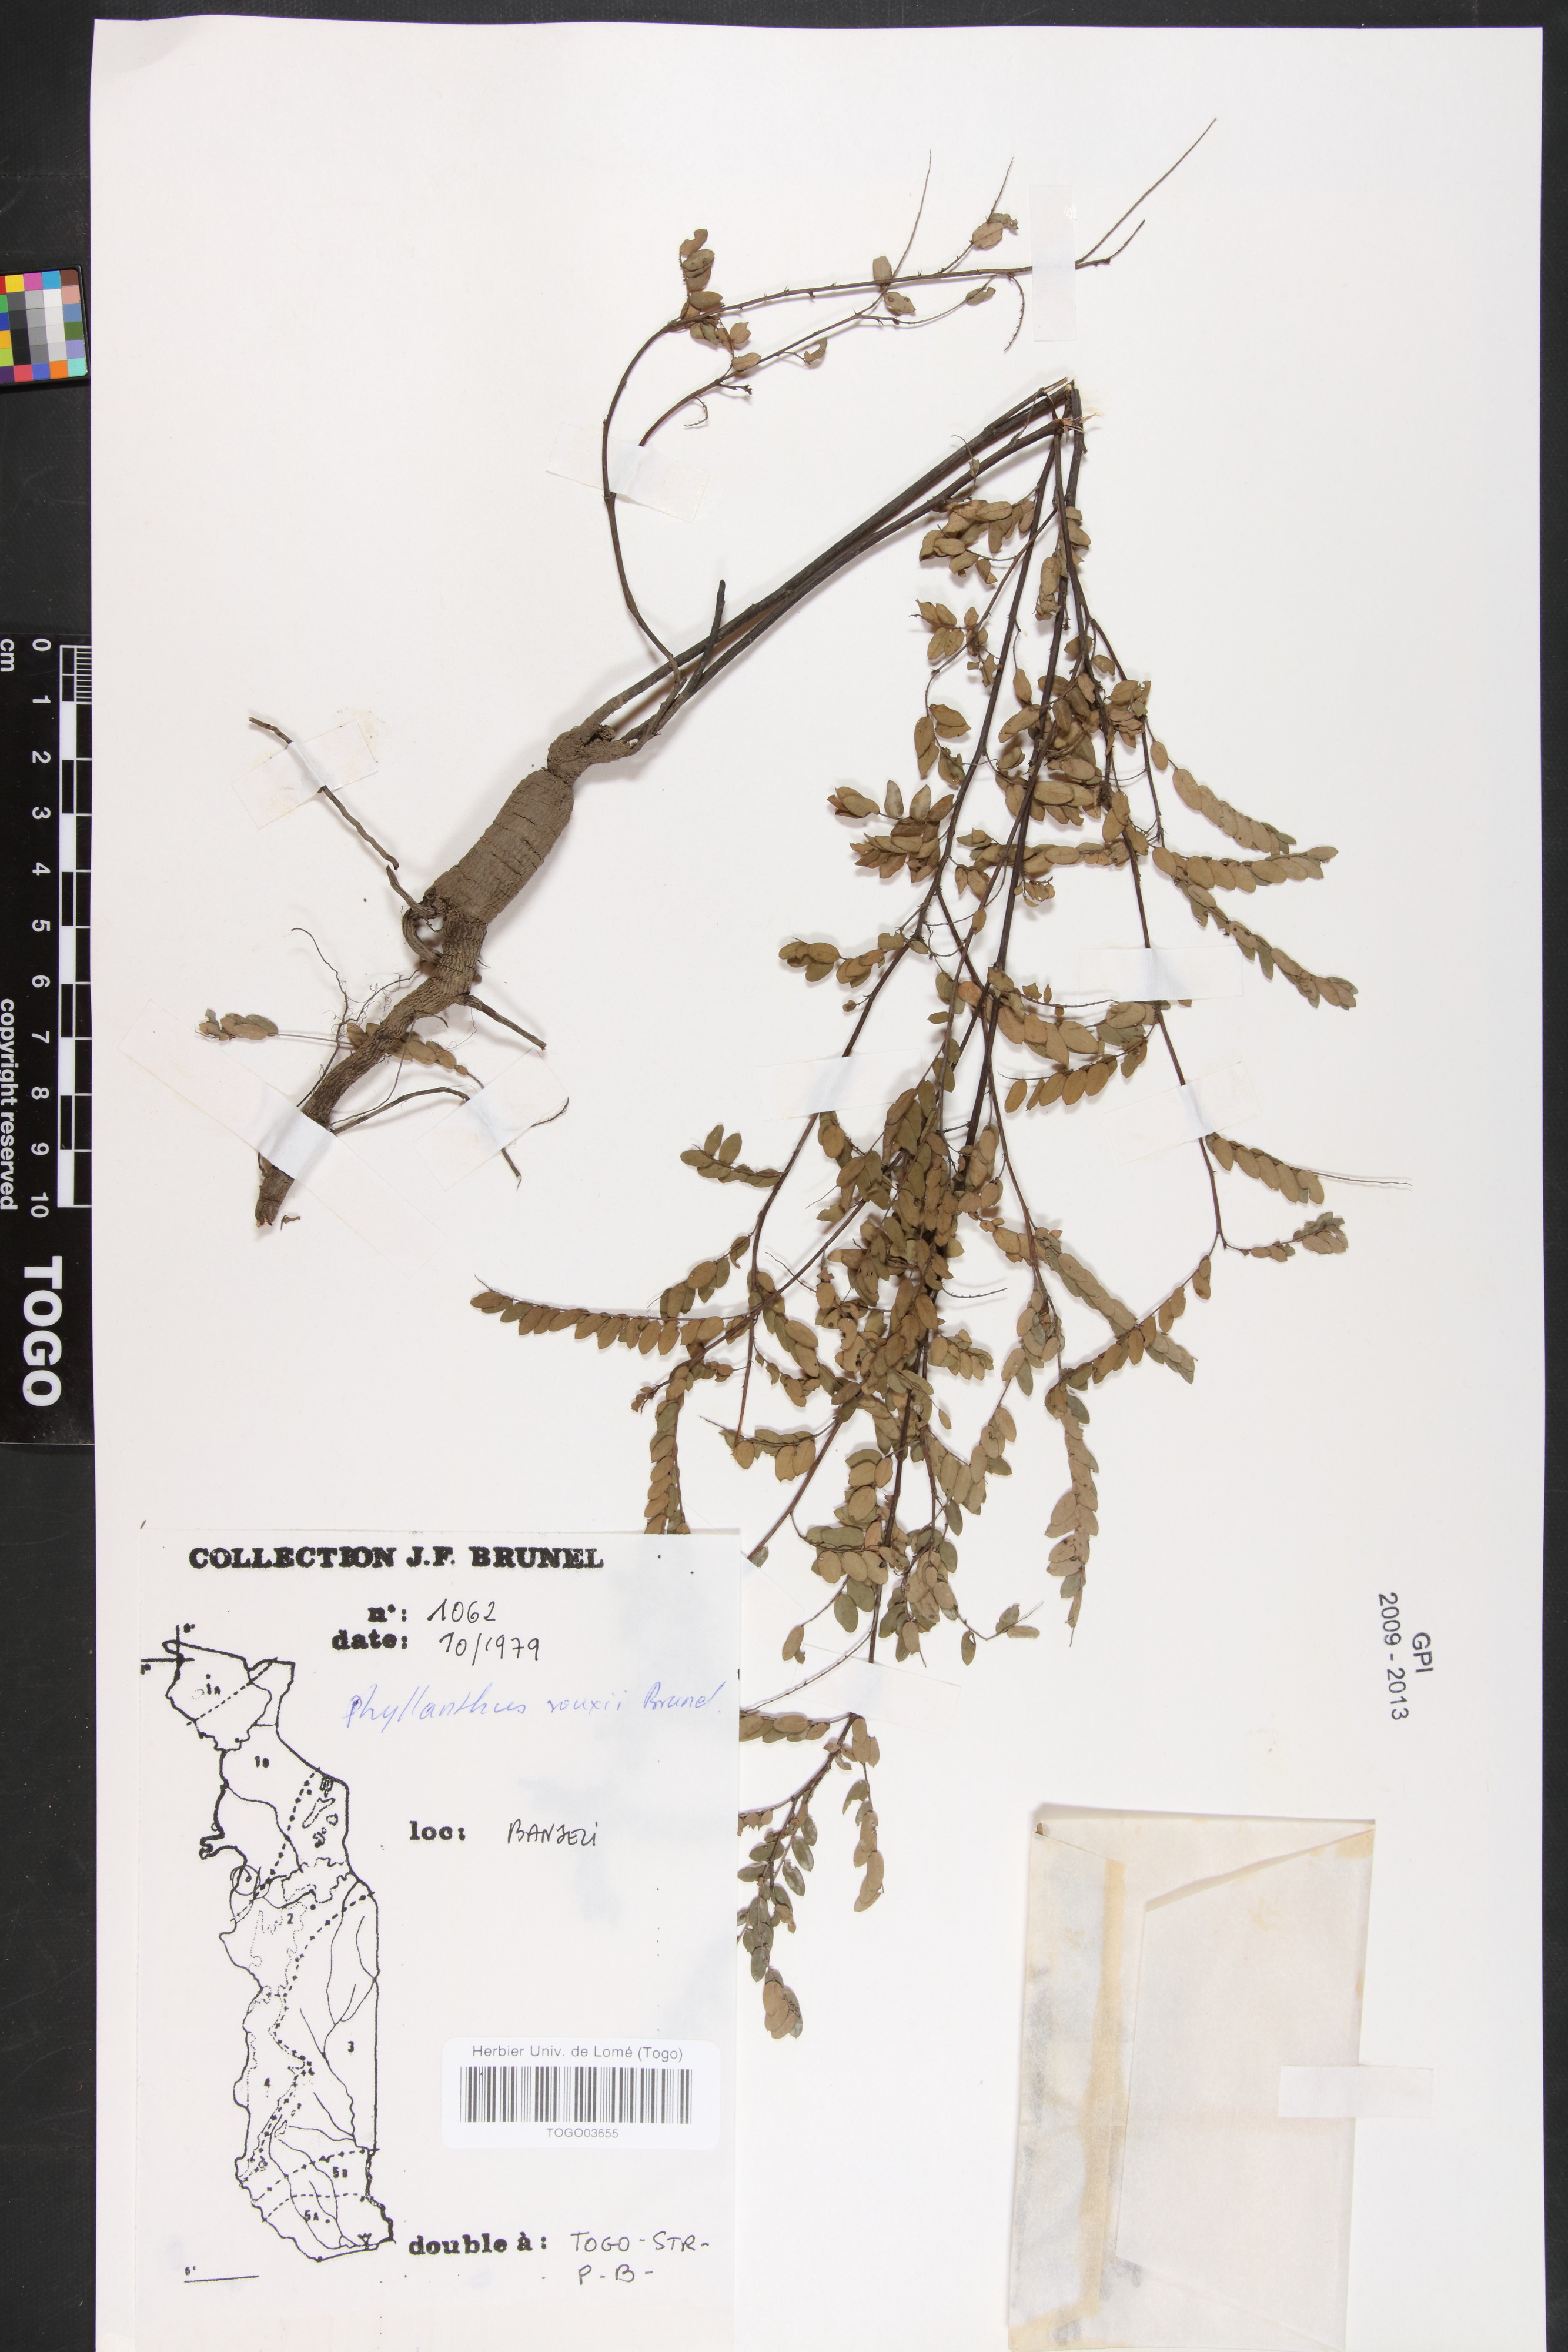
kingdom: Plantae
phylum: Tracheophyta
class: Magnoliopsida
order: Malpighiales
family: Phyllanthaceae
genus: Phyllanthus
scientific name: Phyllanthus rouxii
